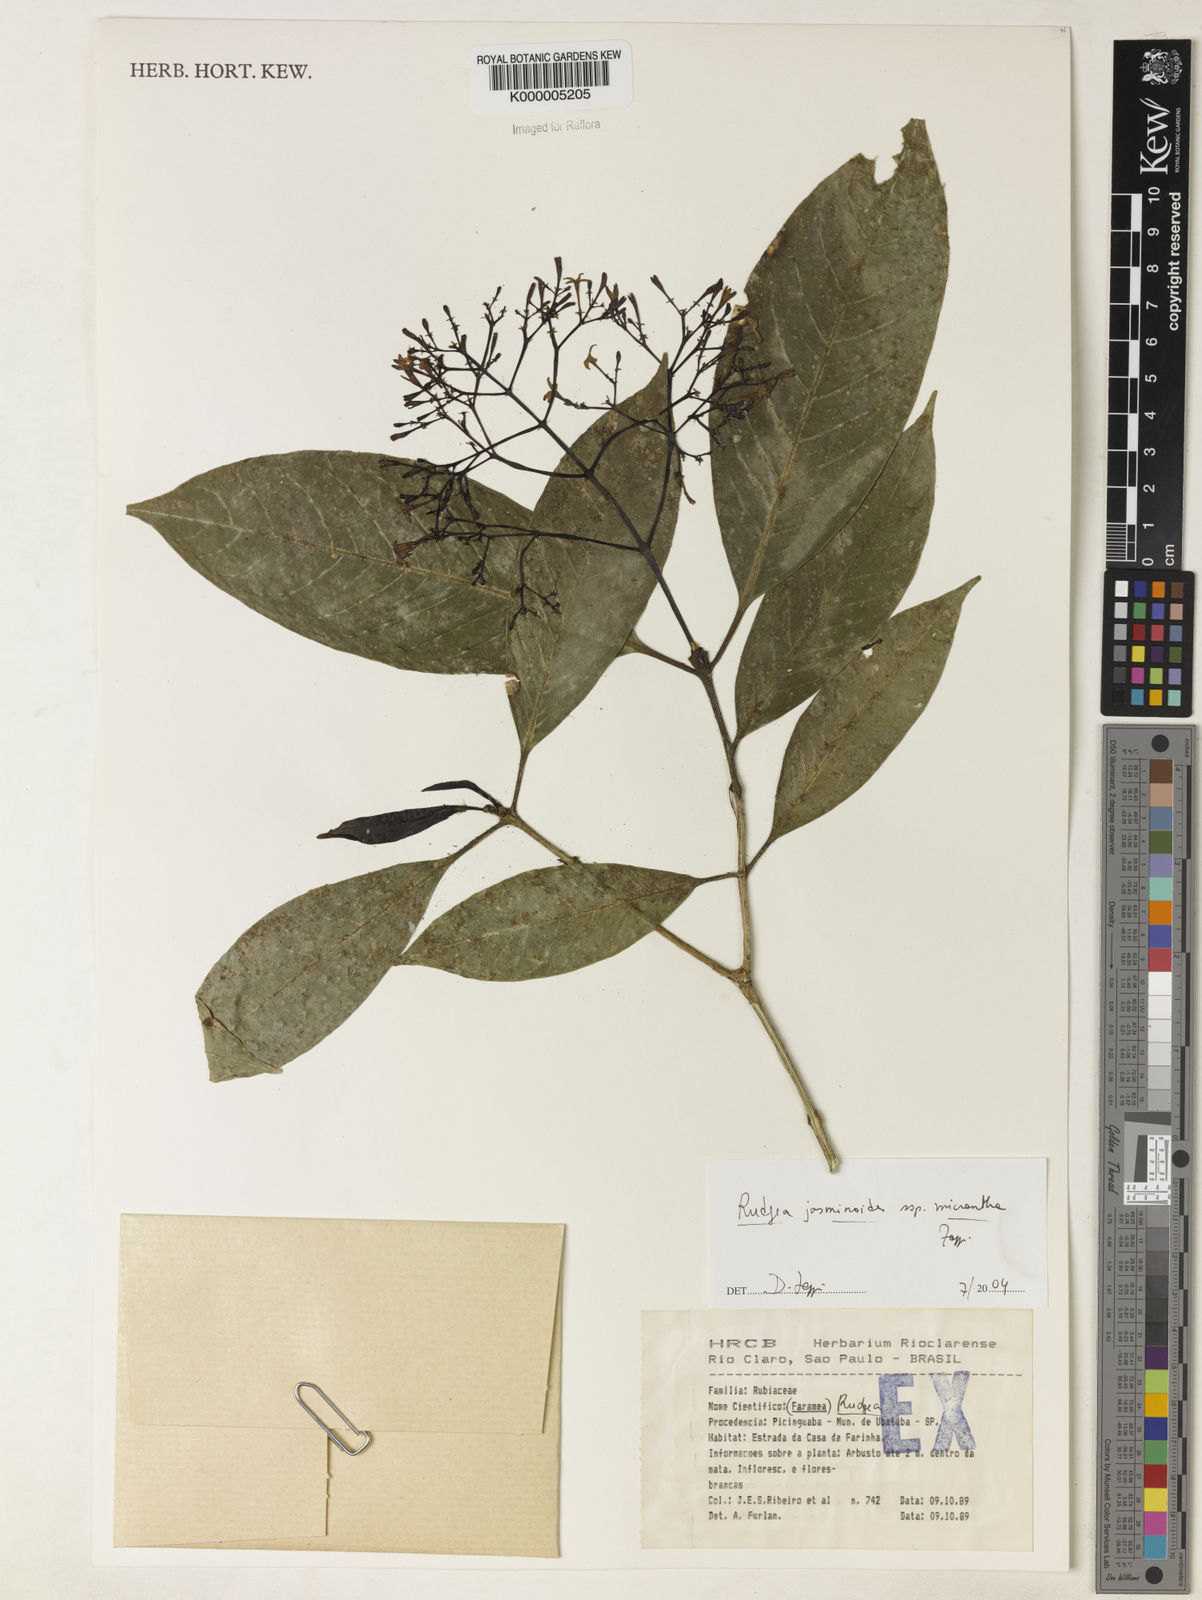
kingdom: Plantae
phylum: Tracheophyta
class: Magnoliopsida
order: Gentianales
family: Rubiaceae
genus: Rudgea
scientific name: Rudgea jasminoides
